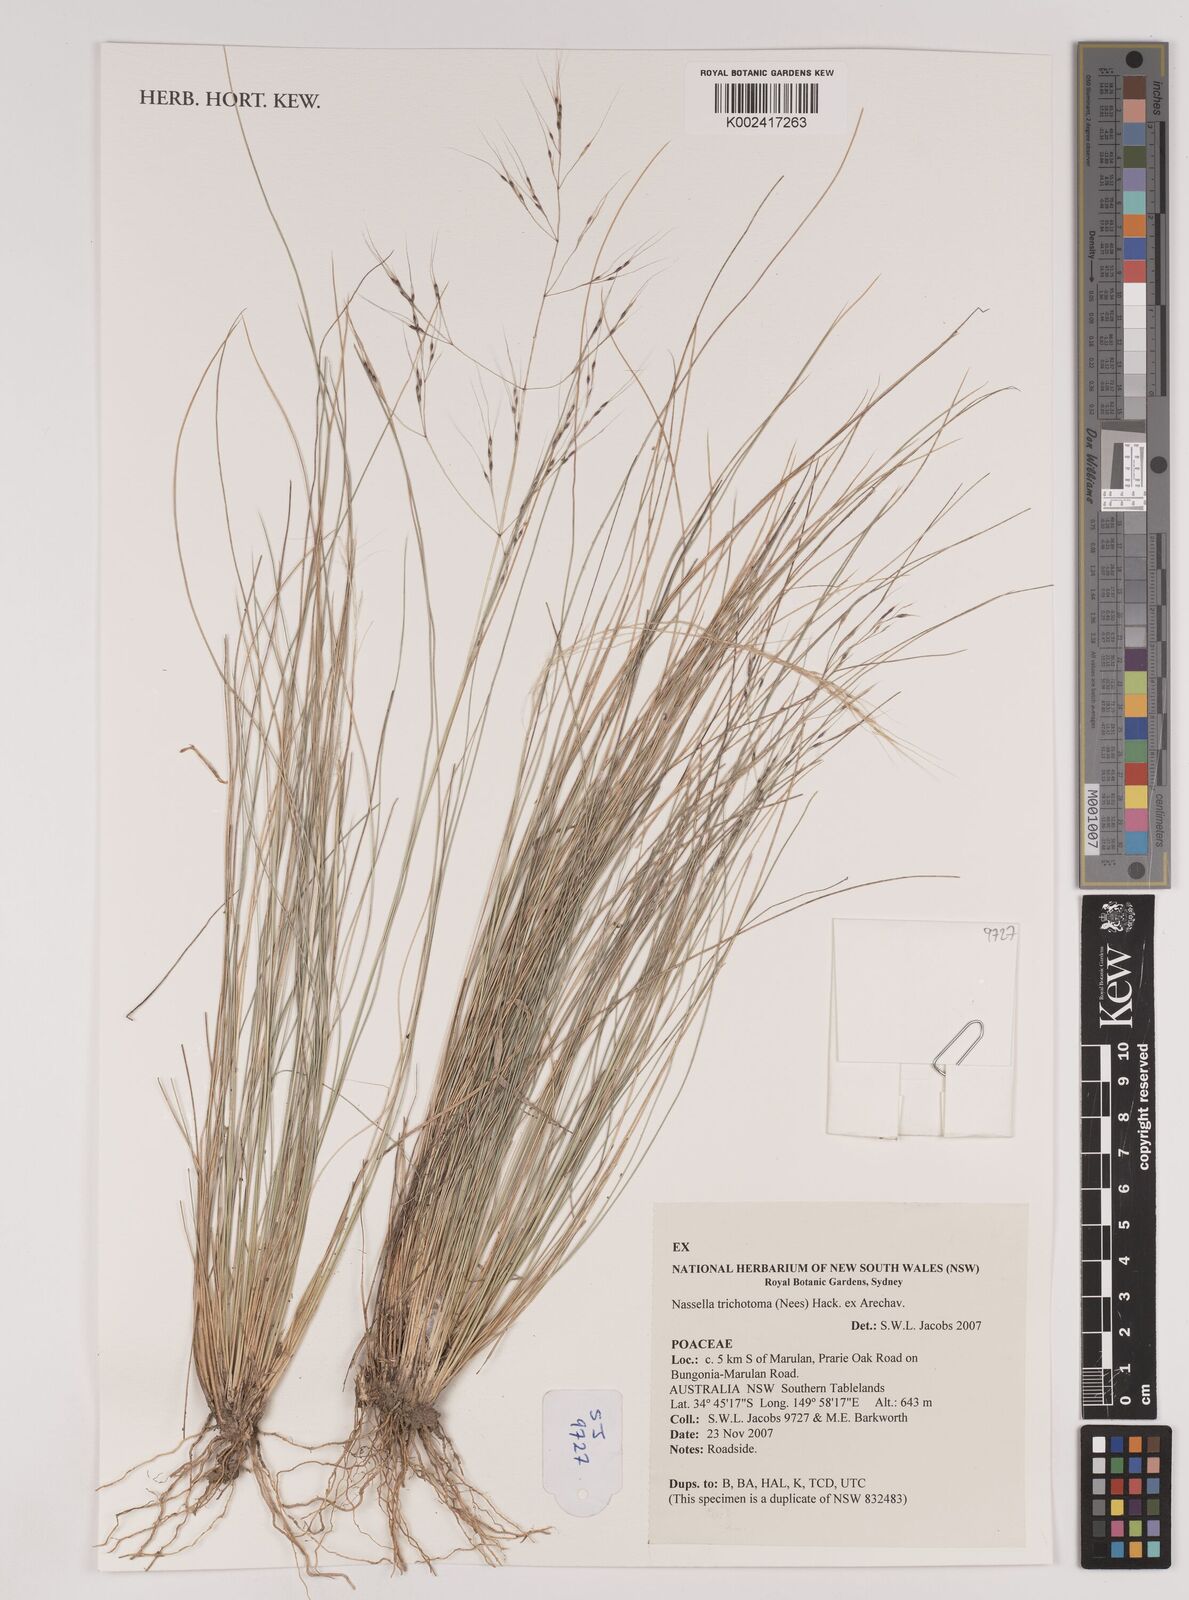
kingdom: Plantae
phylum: Tracheophyta
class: Liliopsida
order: Poales
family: Poaceae
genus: Nassella
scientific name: Nassella trichotoma
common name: Serrated tussock grass
